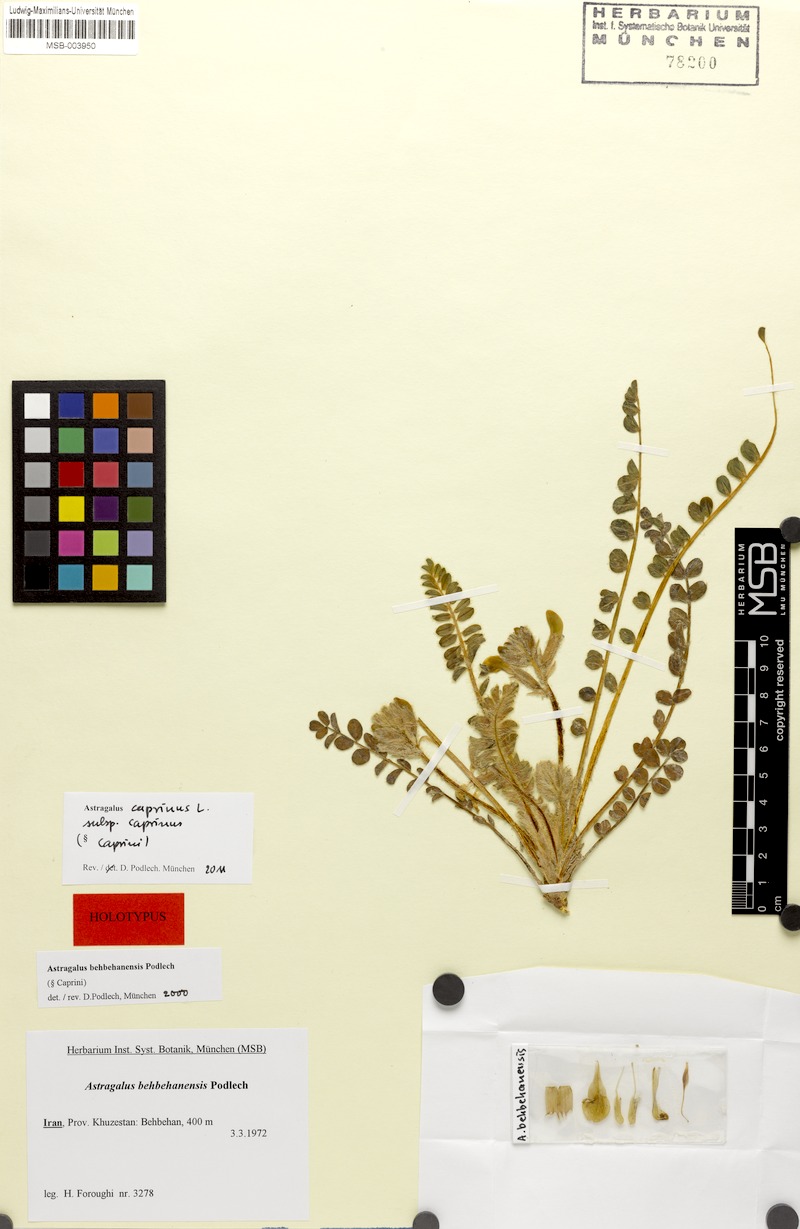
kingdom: Plantae
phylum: Tracheophyta
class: Magnoliopsida
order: Fabales
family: Fabaceae
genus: Astragalus
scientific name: Astragalus caprinus
